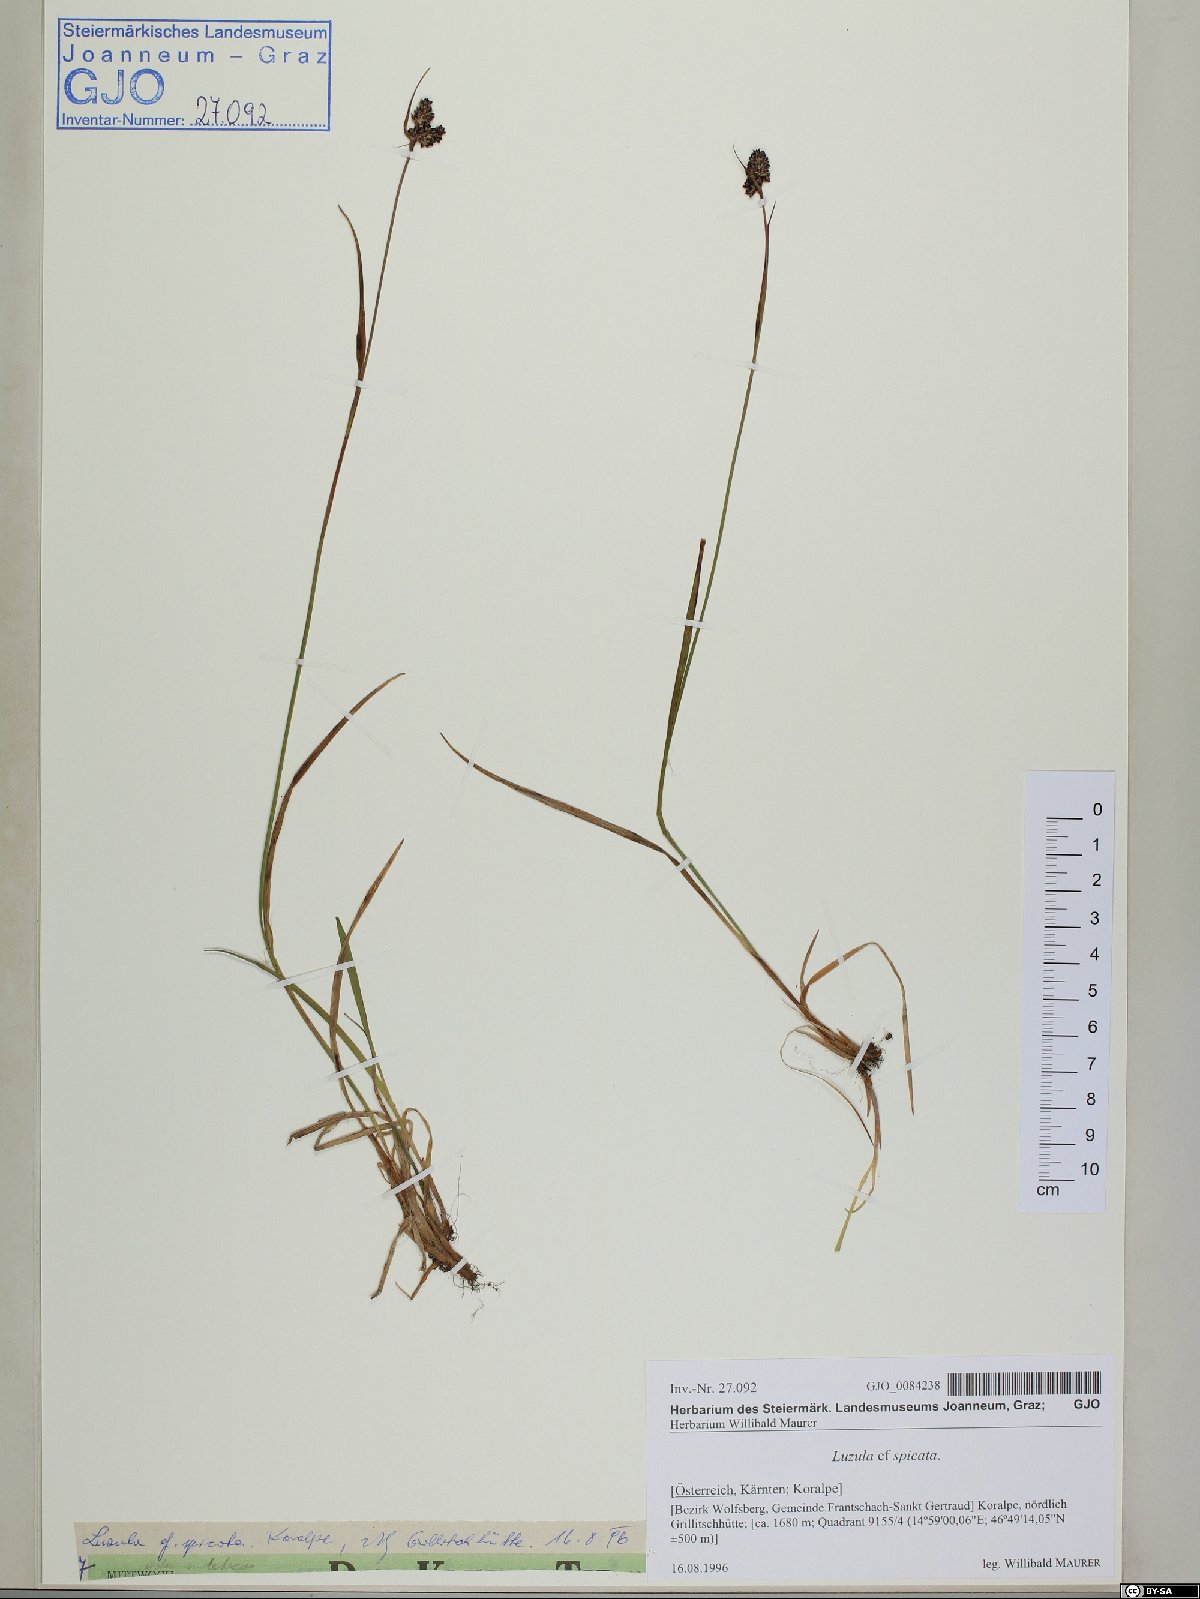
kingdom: Plantae
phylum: Tracheophyta
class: Liliopsida
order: Poales
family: Juncaceae
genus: Luzula
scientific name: Luzula spicata
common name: Spiked wood-rush
